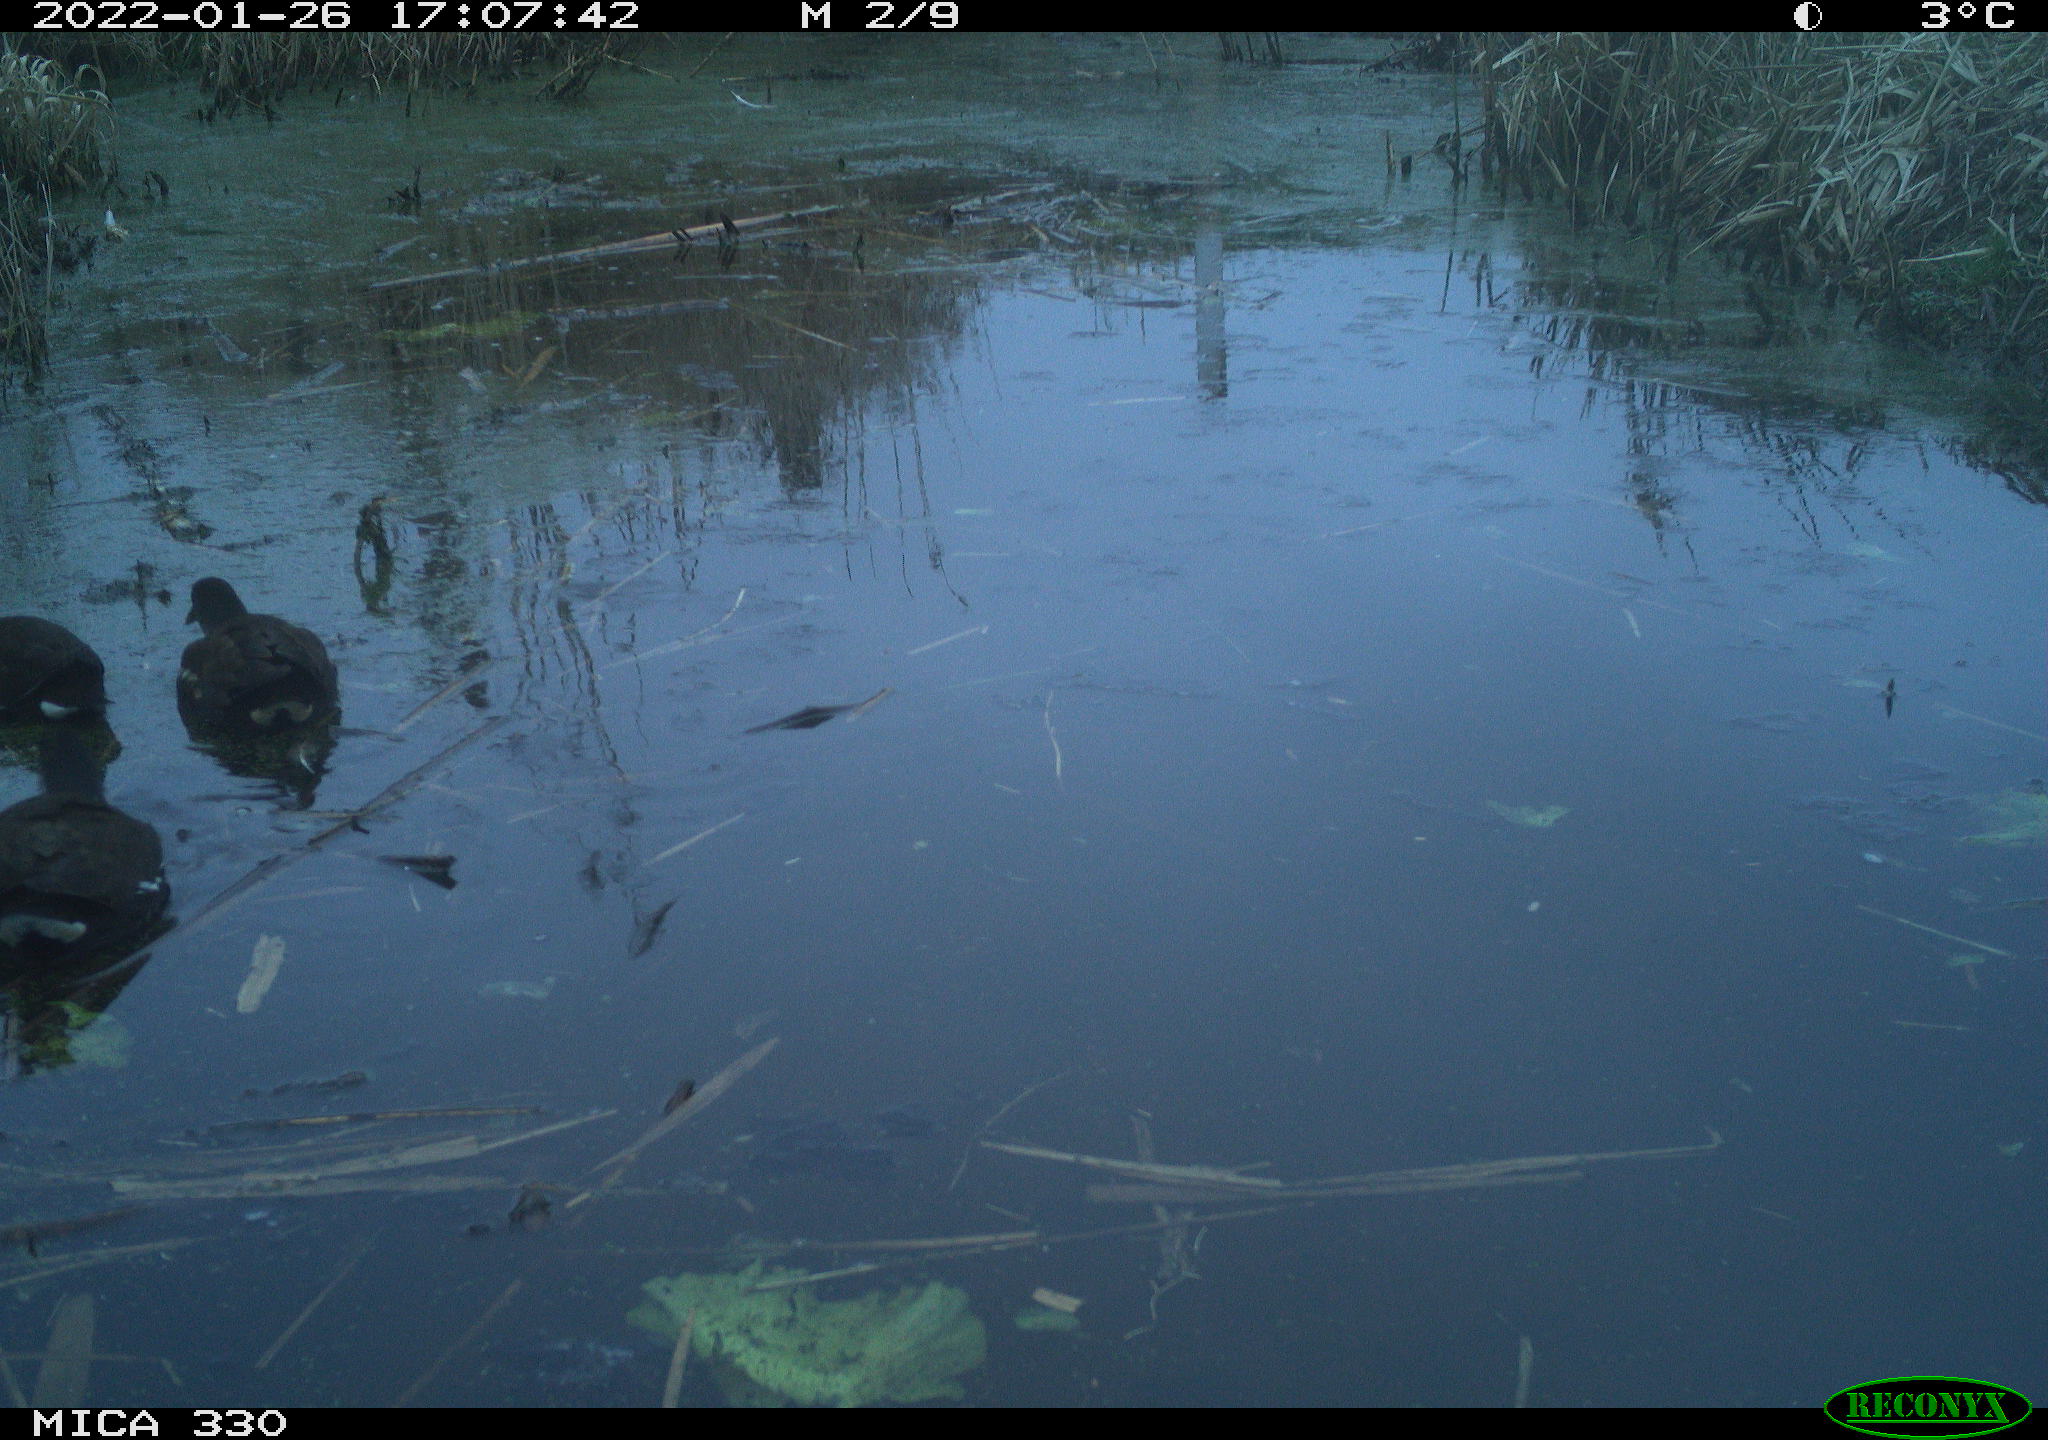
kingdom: Animalia
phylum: Chordata
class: Aves
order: Gruiformes
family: Rallidae
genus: Gallinula
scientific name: Gallinula chloropus
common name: Common moorhen
